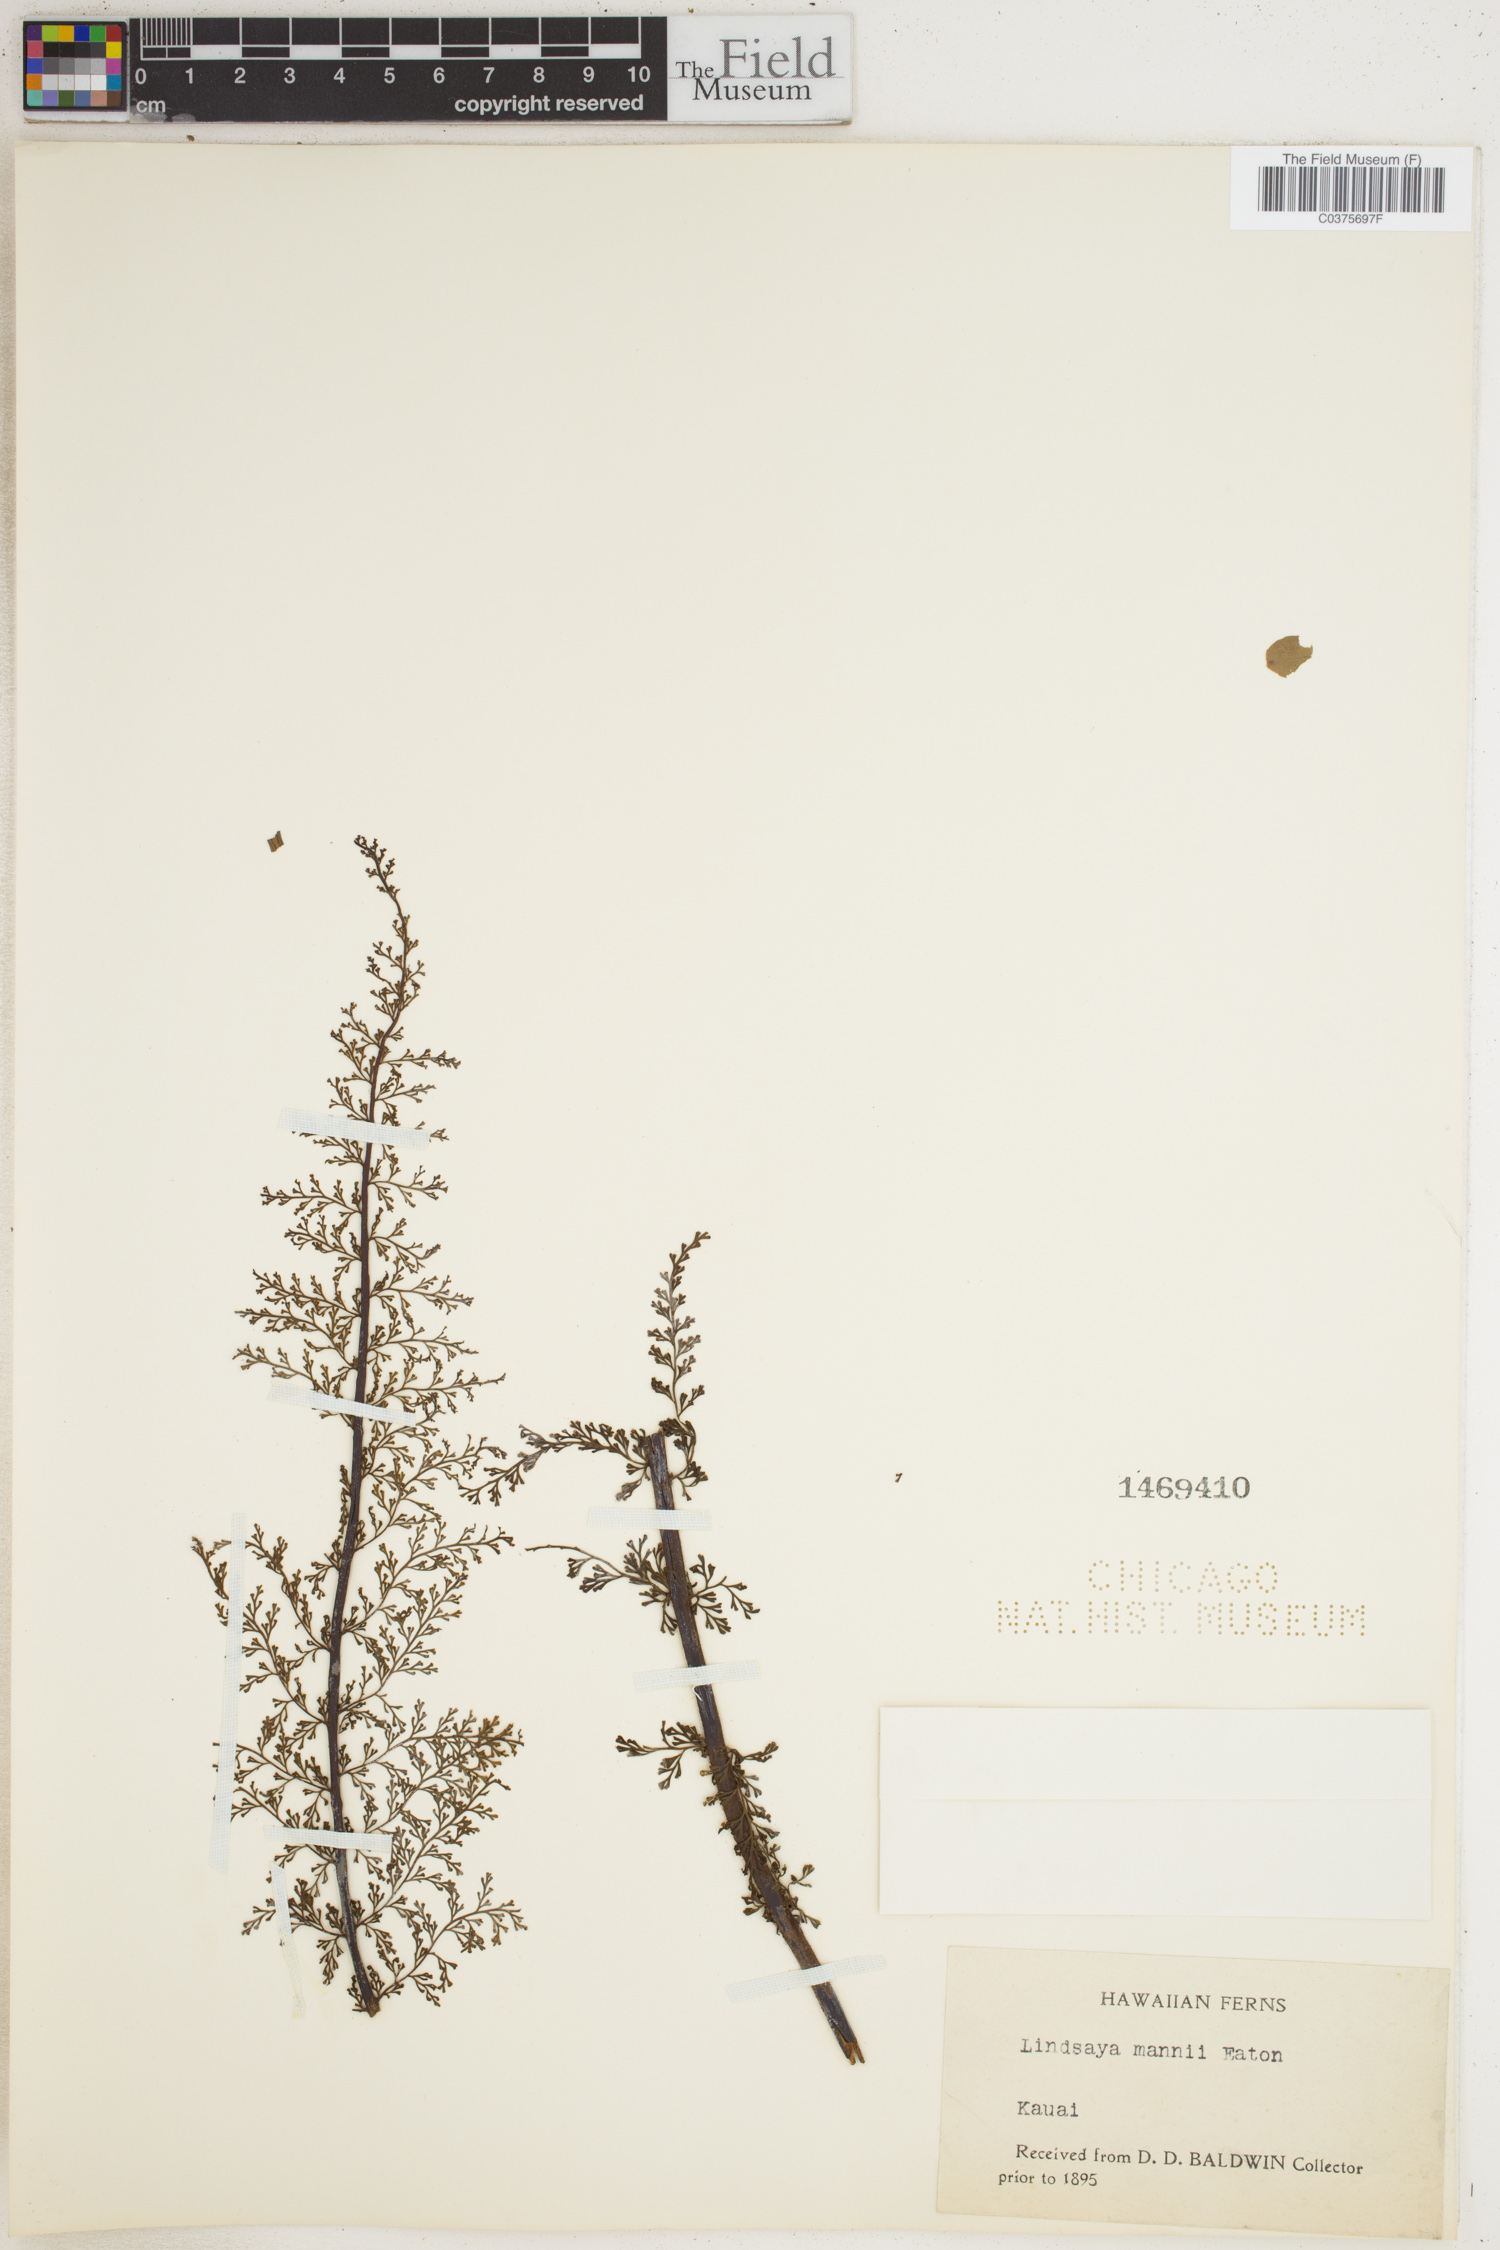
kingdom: Plantae
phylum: Tracheophyta
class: Polypodiopsida
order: Polypodiales
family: Aspleniaceae
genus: Asplenium
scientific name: Asplenium dielmannii
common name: Mann's island spleenwort
